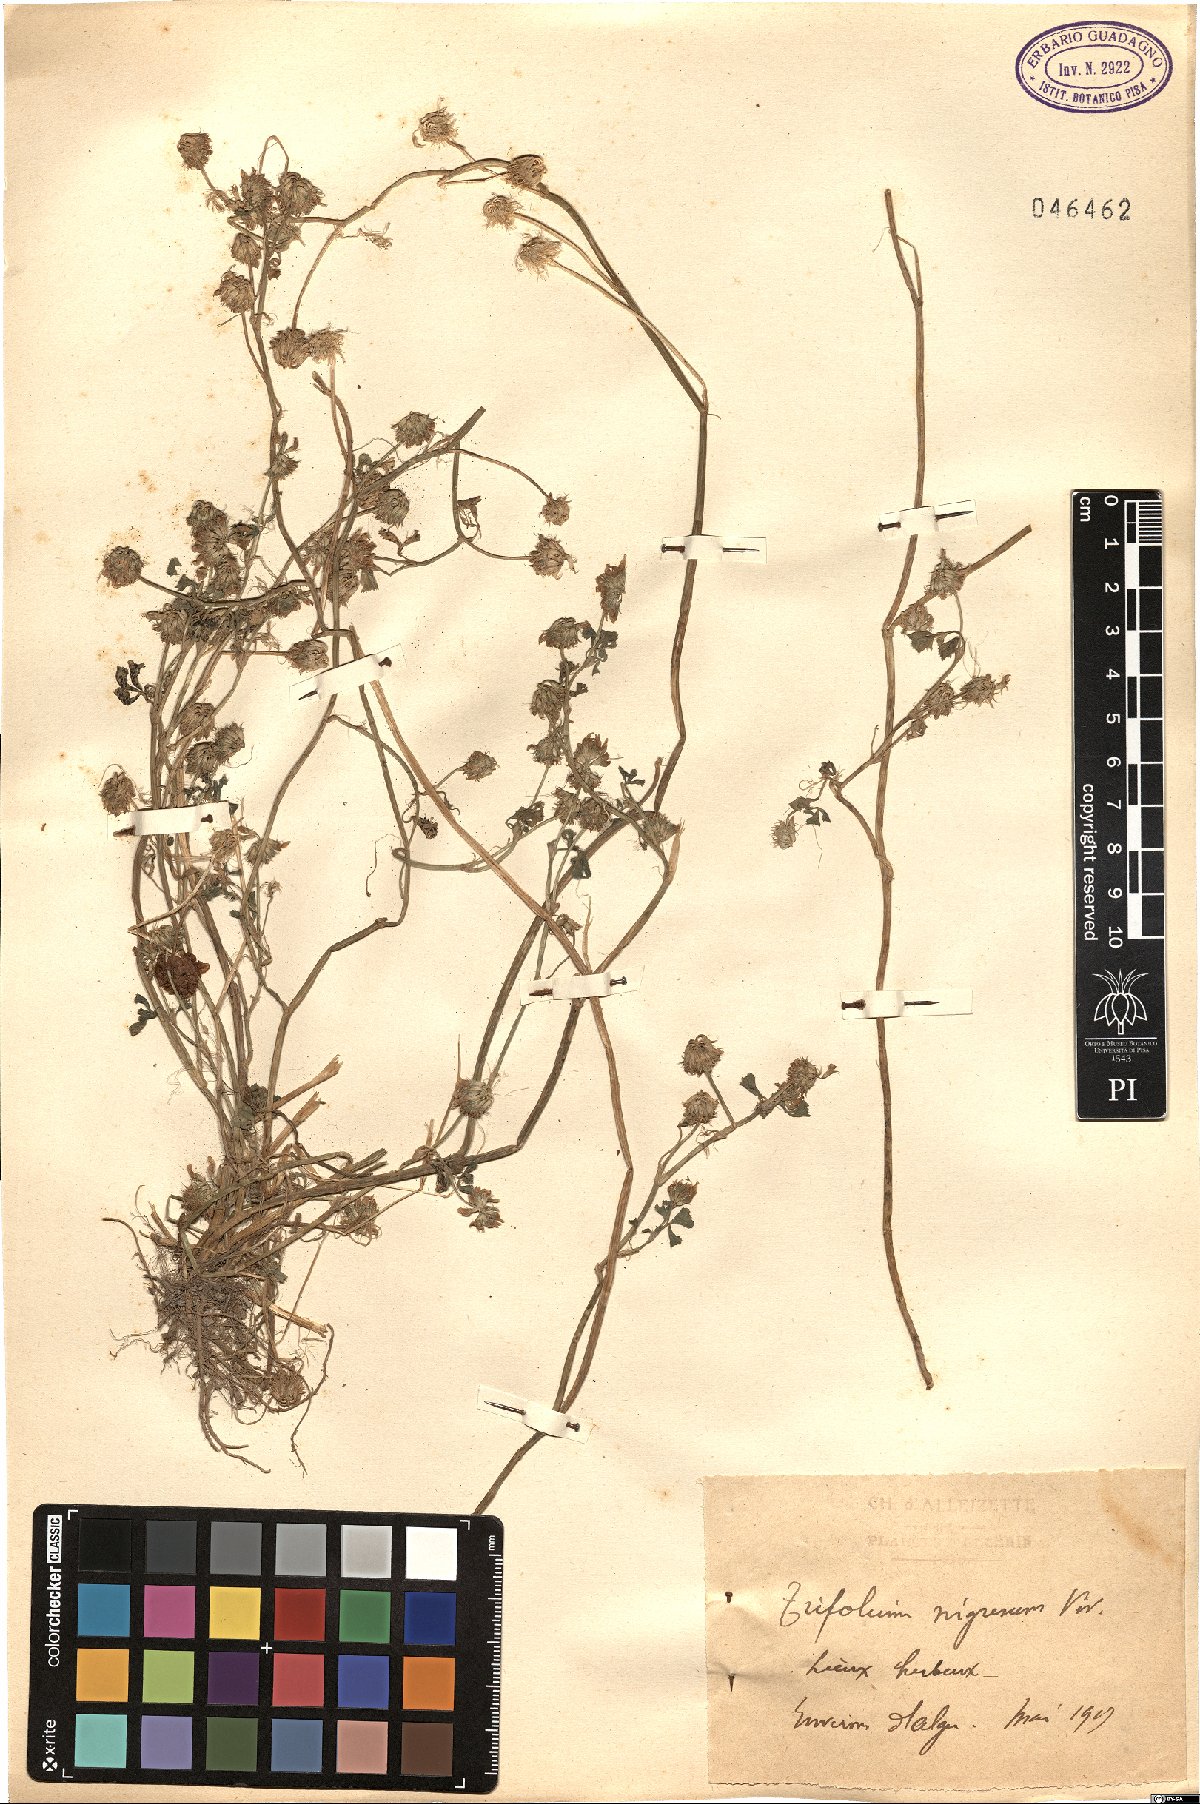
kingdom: Plantae
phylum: Tracheophyta
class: Magnoliopsida
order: Fabales
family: Fabaceae
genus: Trifolium
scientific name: Trifolium nigrescens
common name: Small white clover
